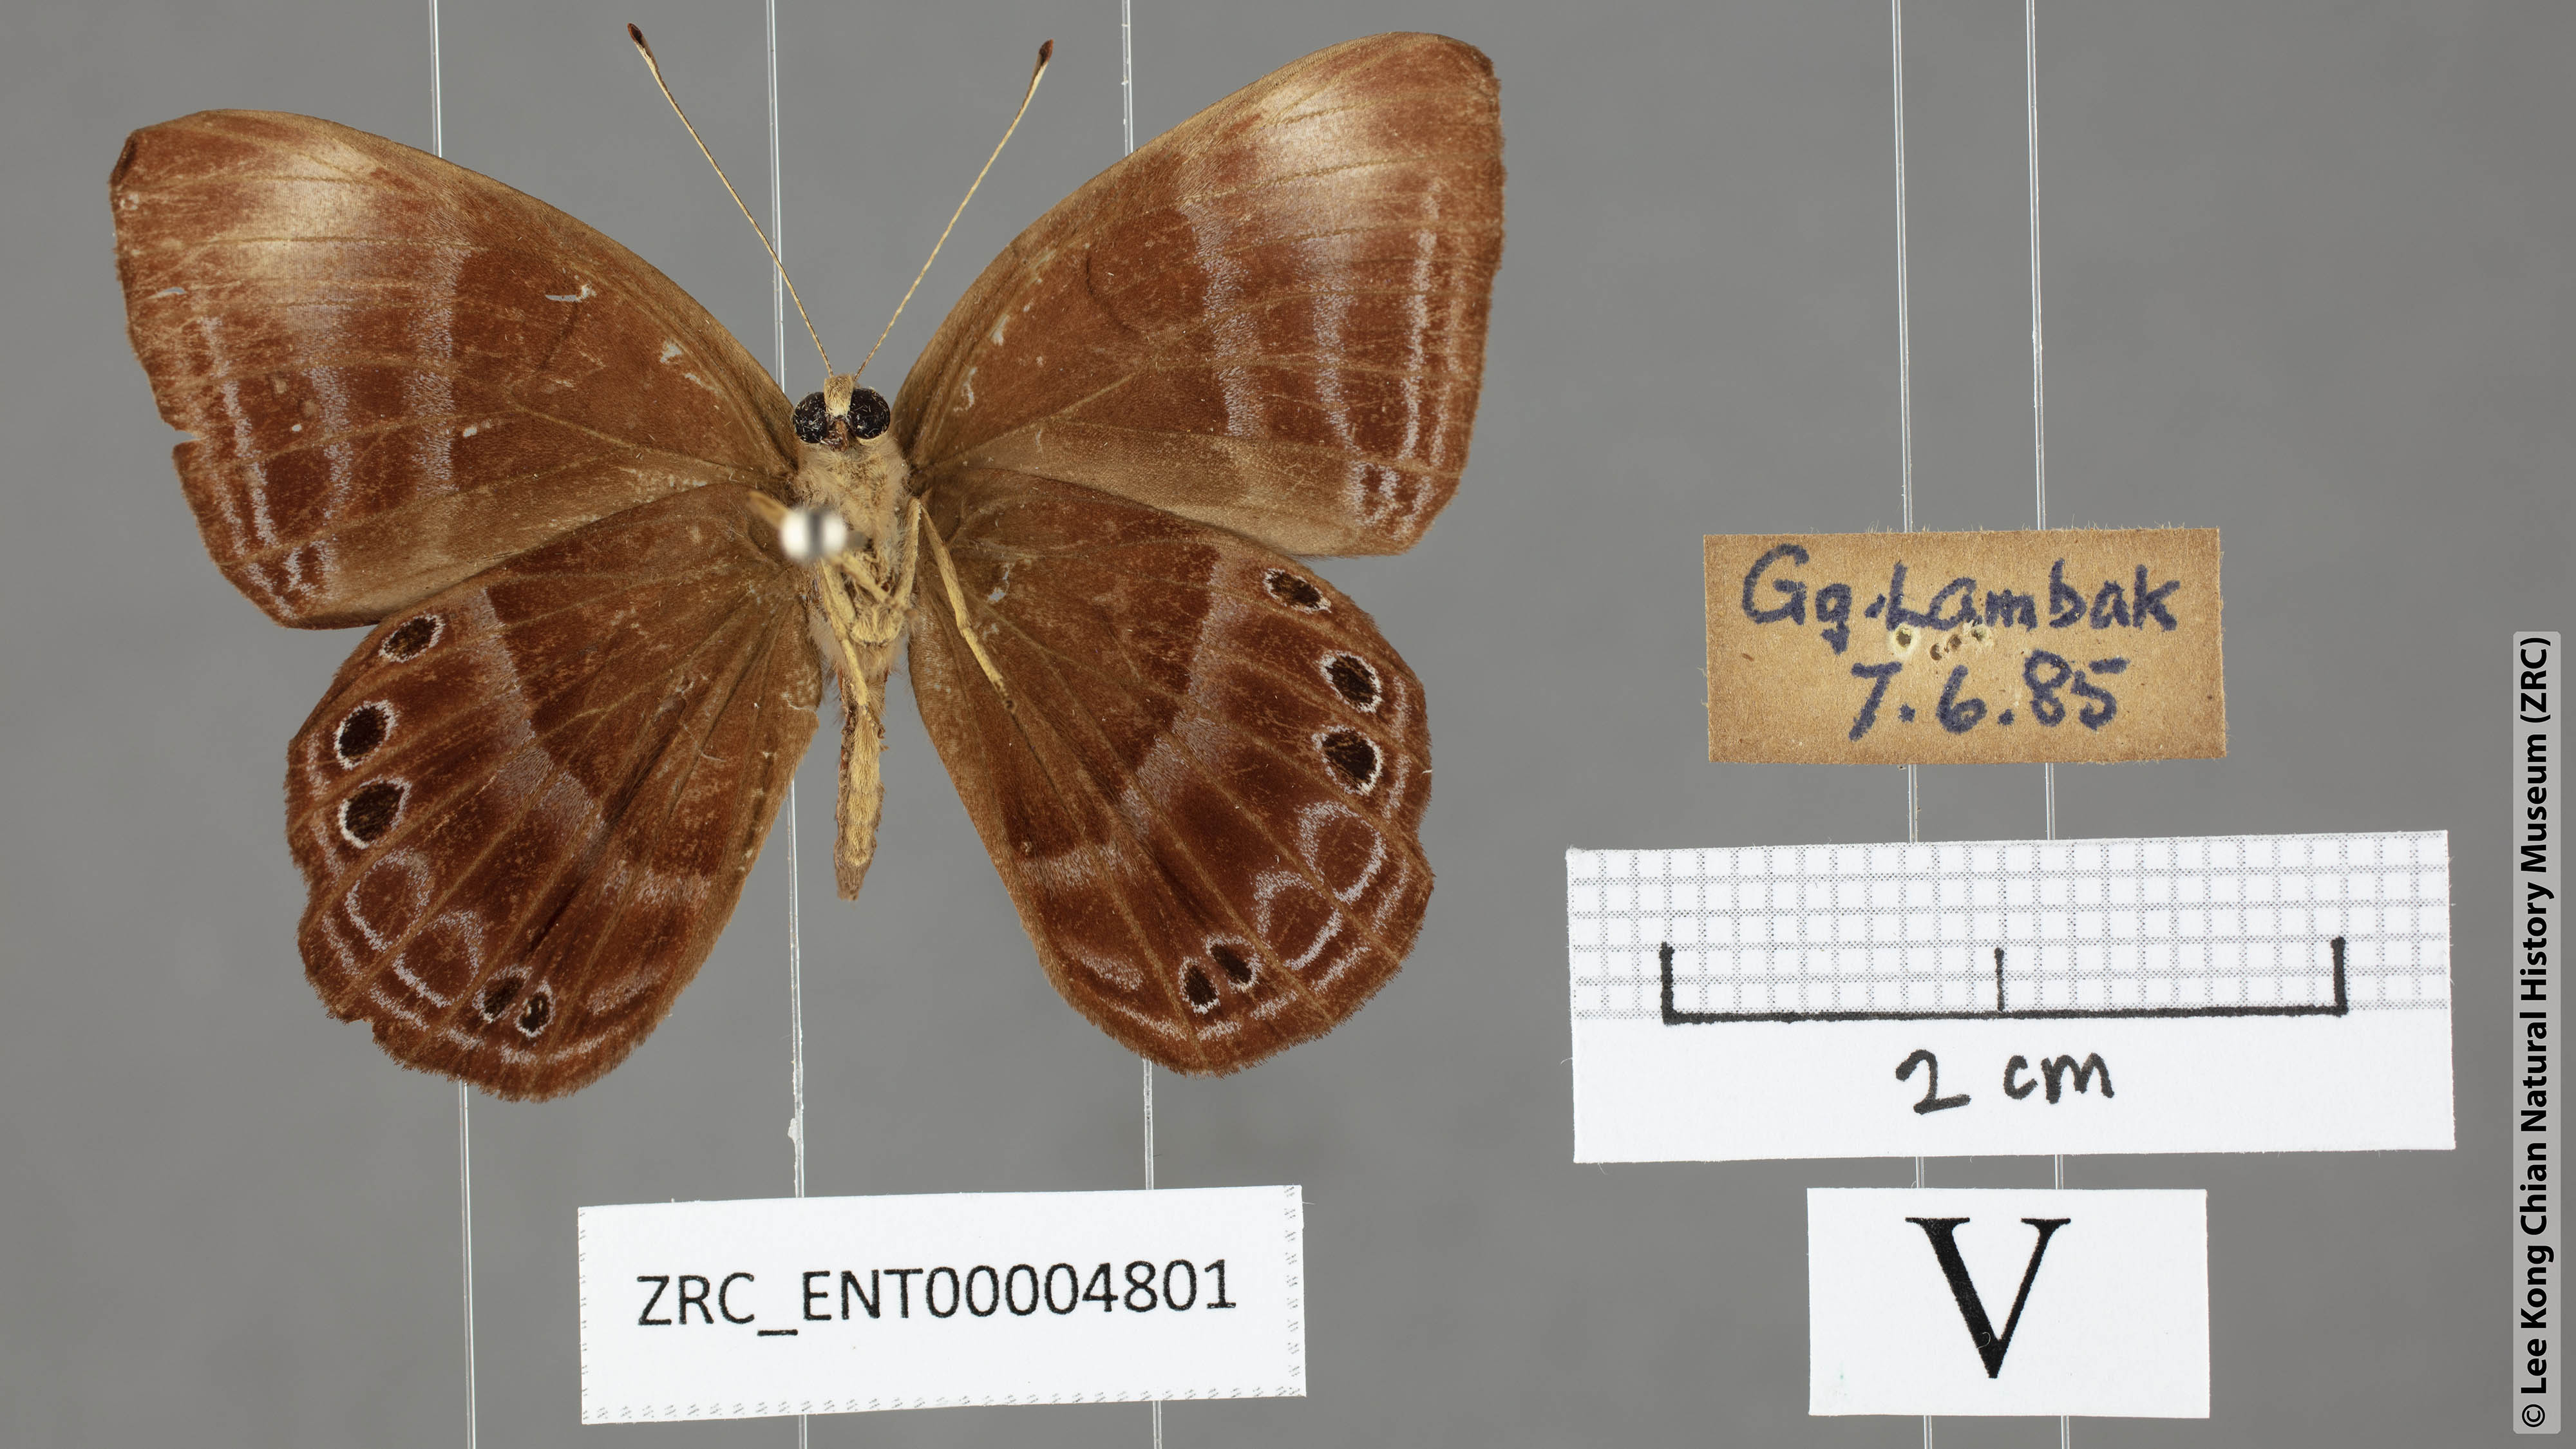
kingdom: Animalia
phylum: Arthropoda
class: Insecta
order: Lepidoptera
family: Lycaenidae
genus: Abisara
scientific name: Abisara kausambi
